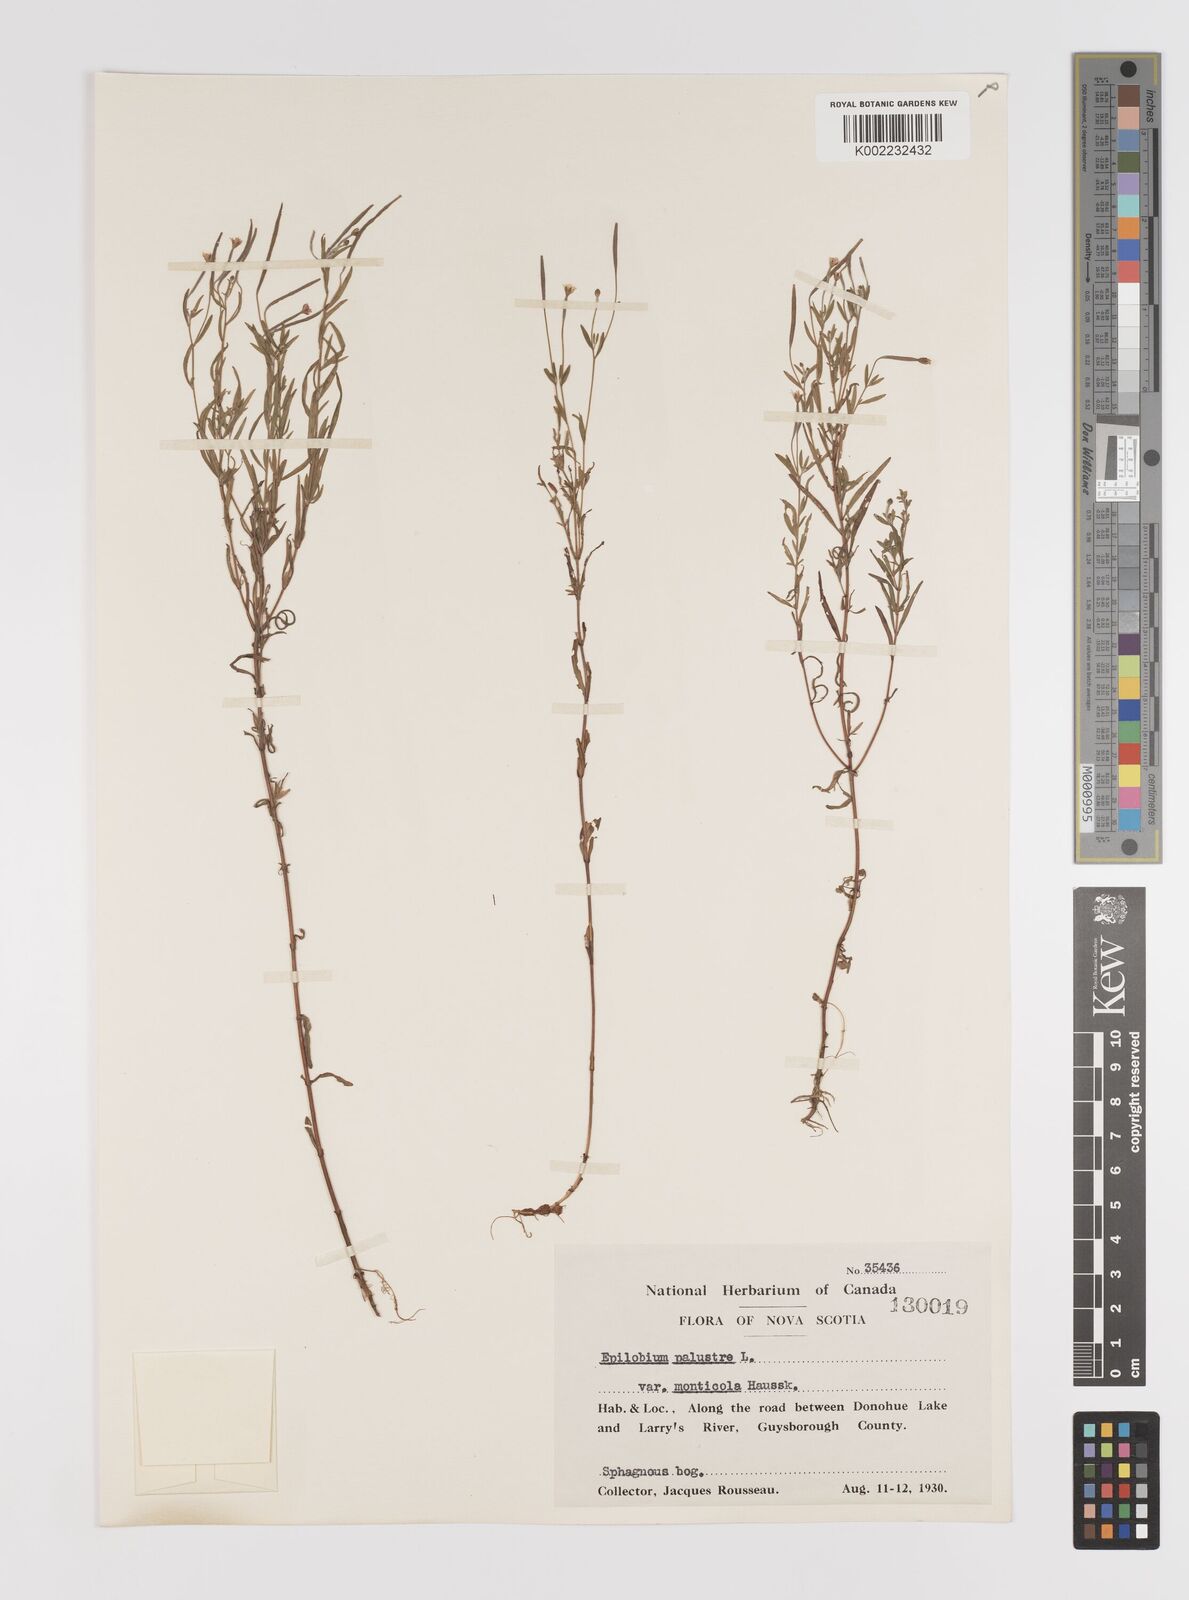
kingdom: Plantae
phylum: Tracheophyta
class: Magnoliopsida
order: Myrtales
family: Onagraceae
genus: Epilobium
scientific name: Epilobium palustre
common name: Marsh willowherb
